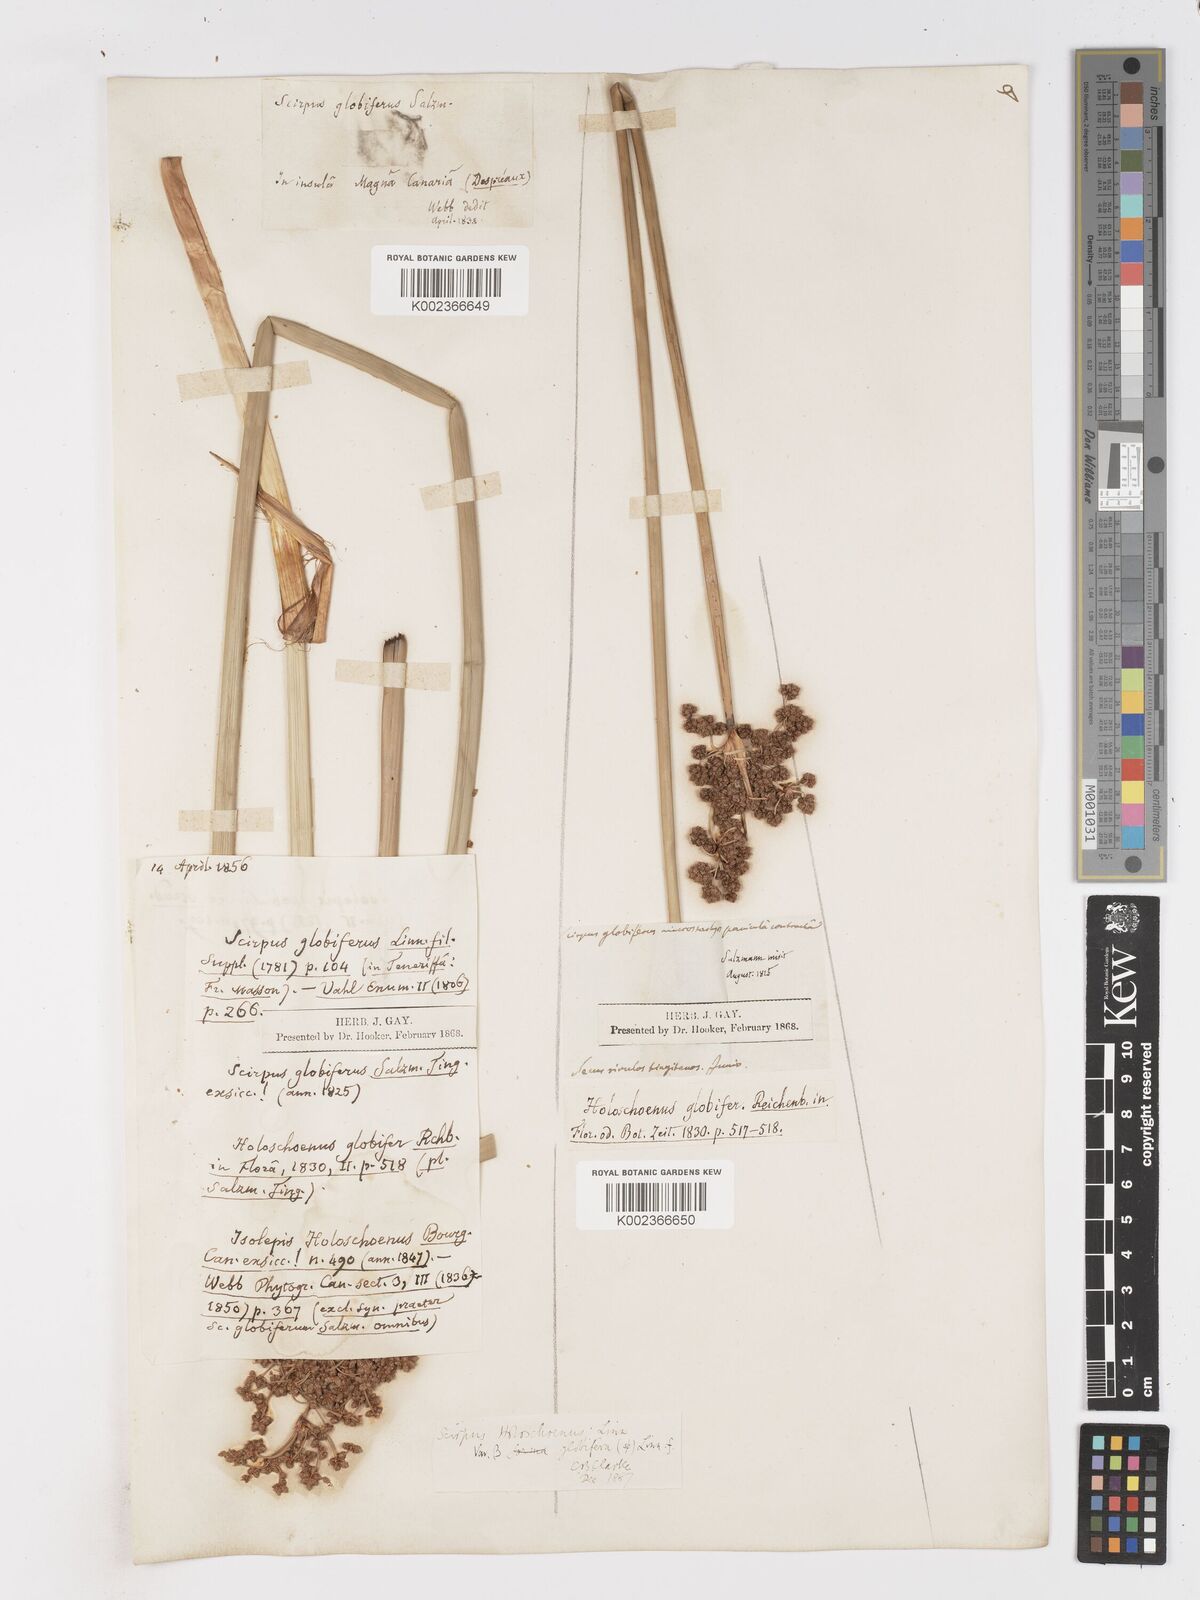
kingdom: Plantae
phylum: Tracheophyta
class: Liliopsida
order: Poales
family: Cyperaceae
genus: Scirpoides
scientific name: Scirpoides holoschoenus
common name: Round-headed club-rush
